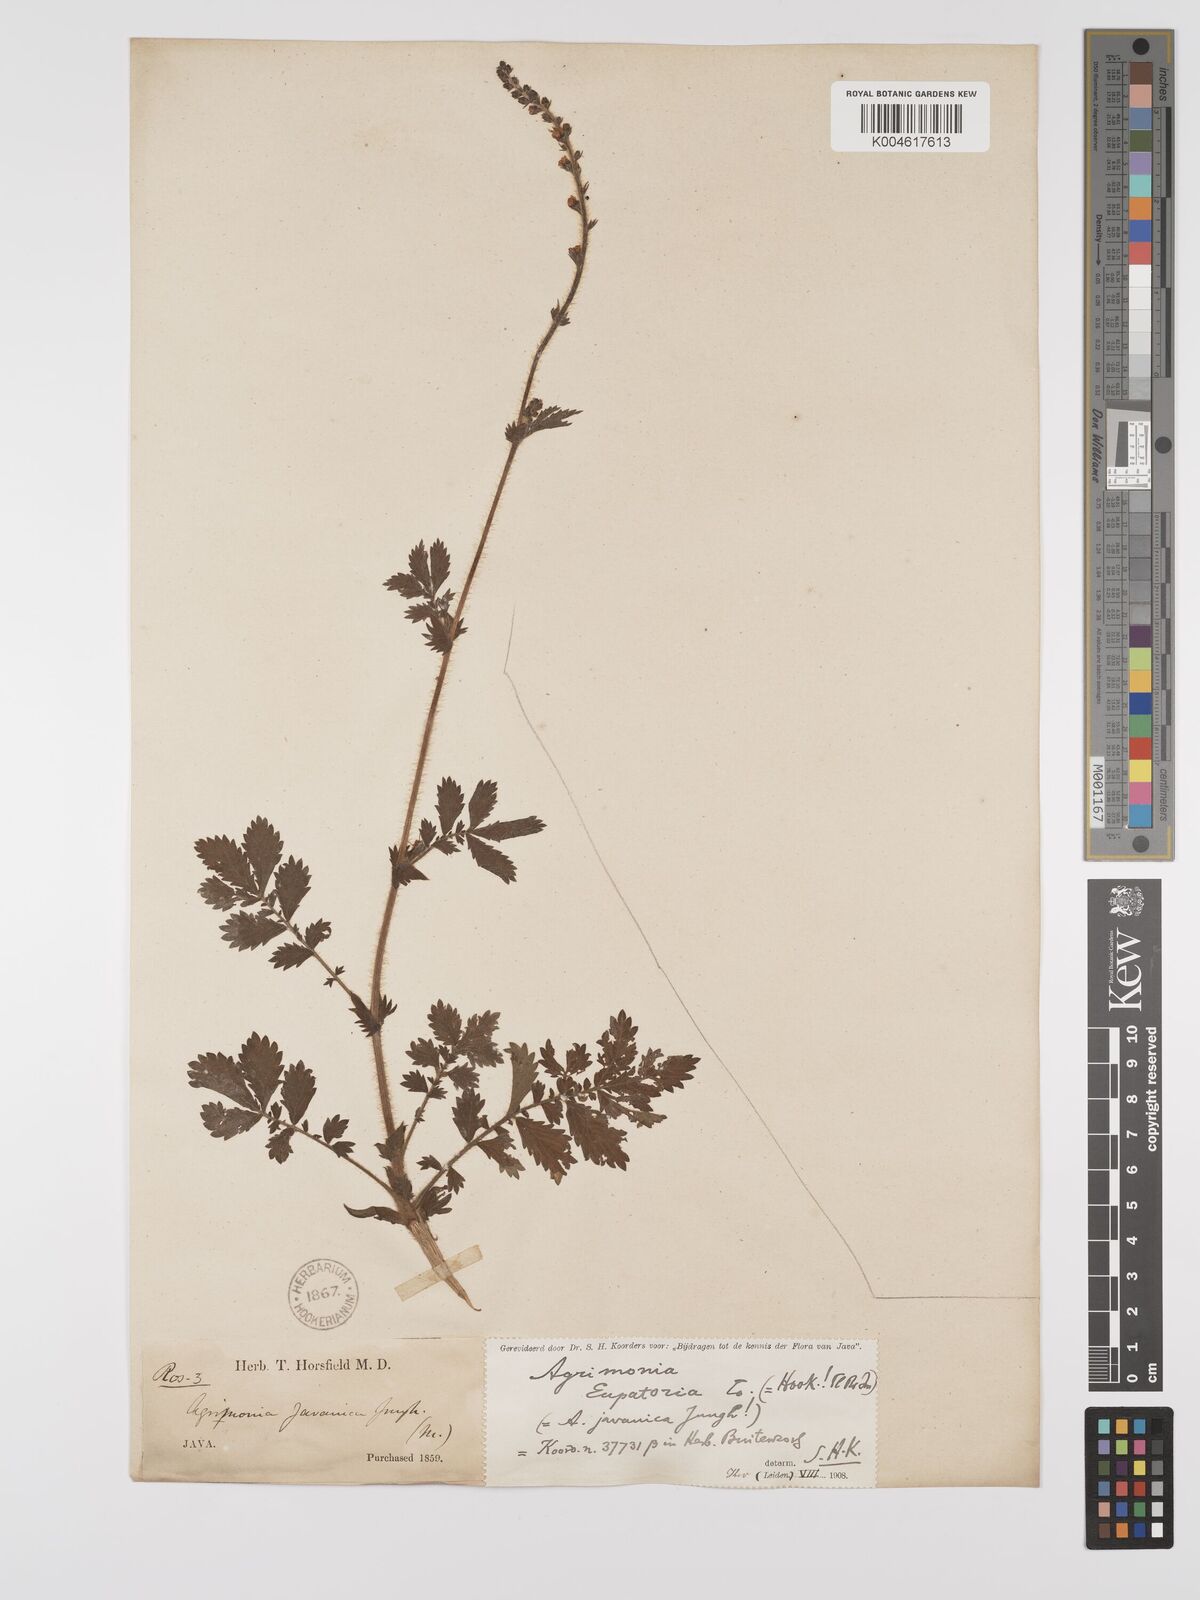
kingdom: Plantae
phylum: Tracheophyta
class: Magnoliopsida
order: Rosales
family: Rosaceae
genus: Agrimonia
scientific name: Agrimonia eupatoria
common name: Agrimony
